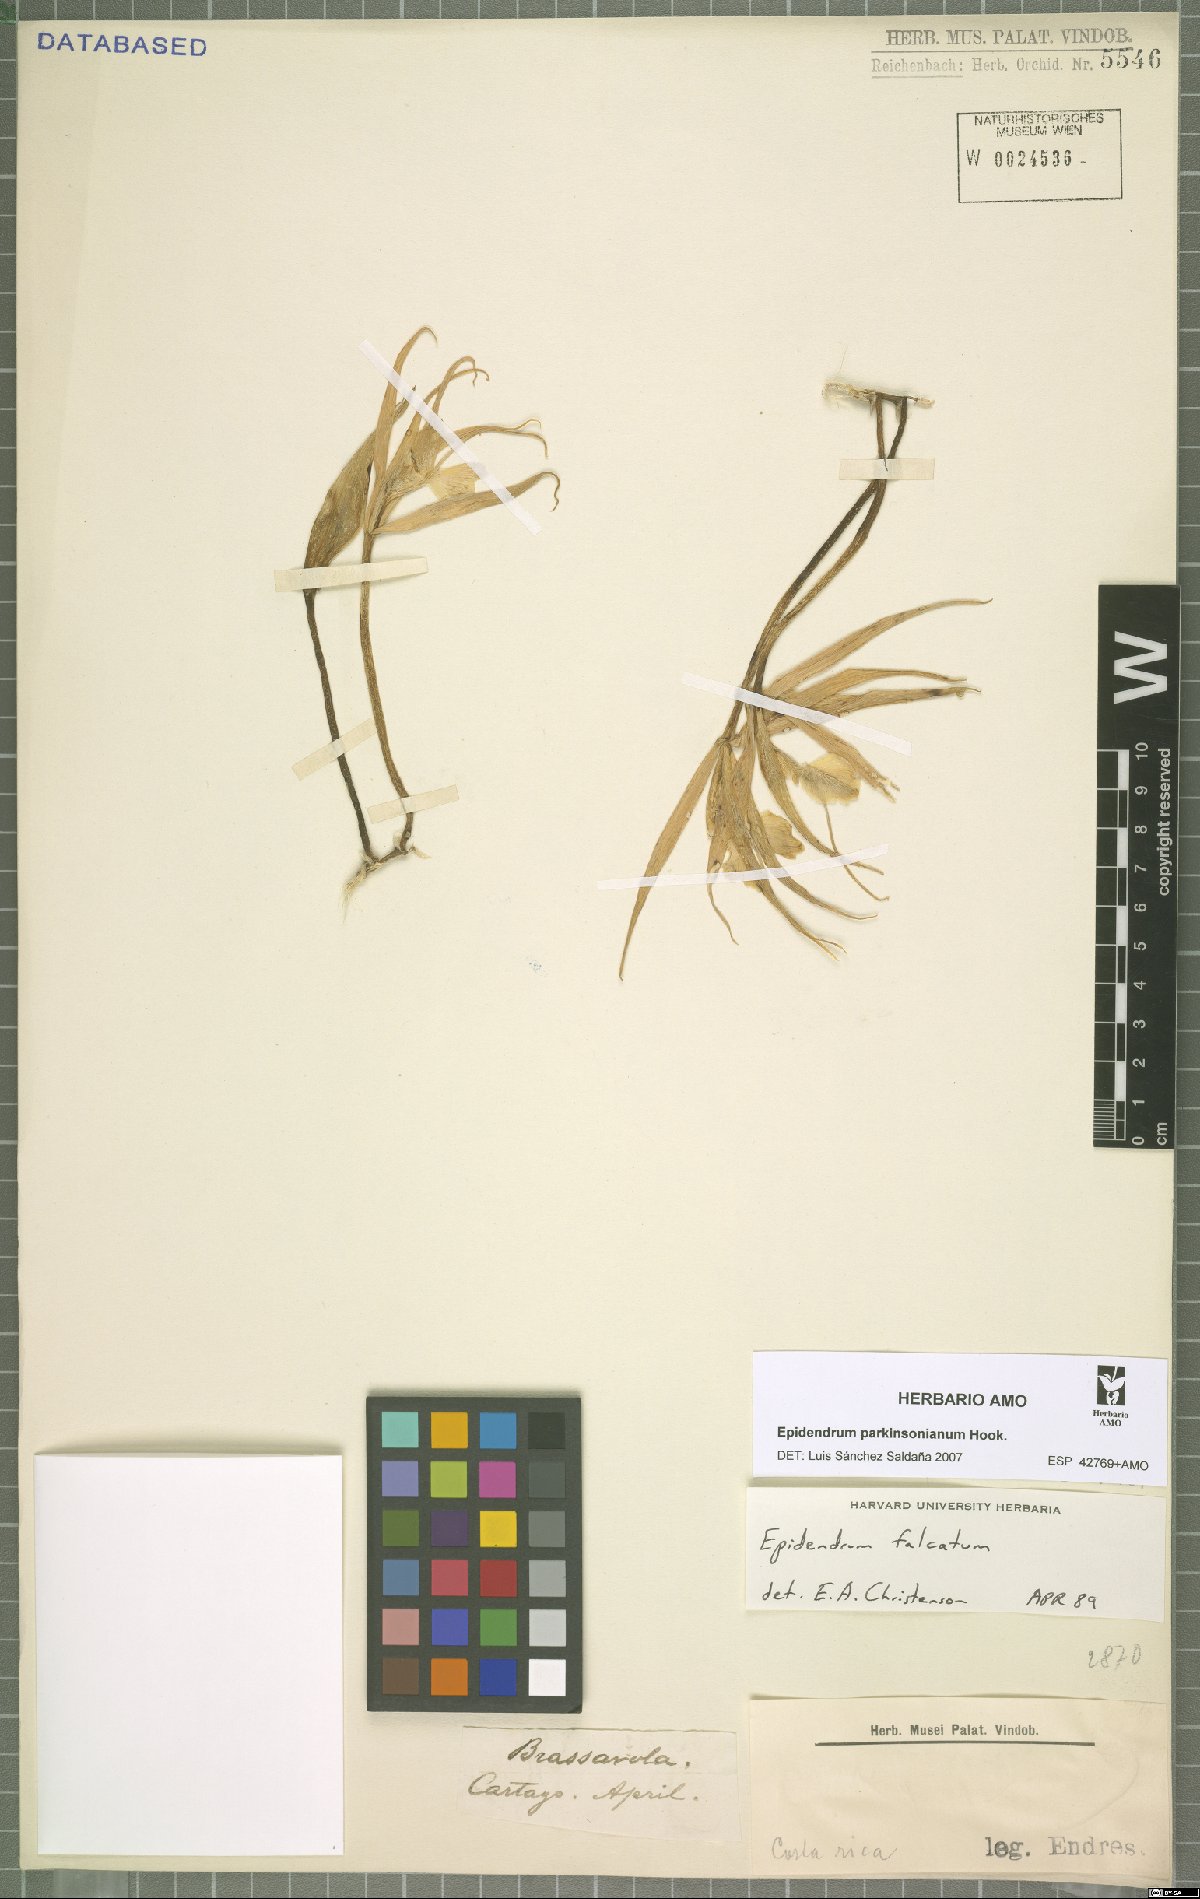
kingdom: Plantae
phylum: Tracheophyta
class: Liliopsida
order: Asparagales
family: Orchidaceae
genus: Epidendrum
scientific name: Epidendrum parkinsonianum
